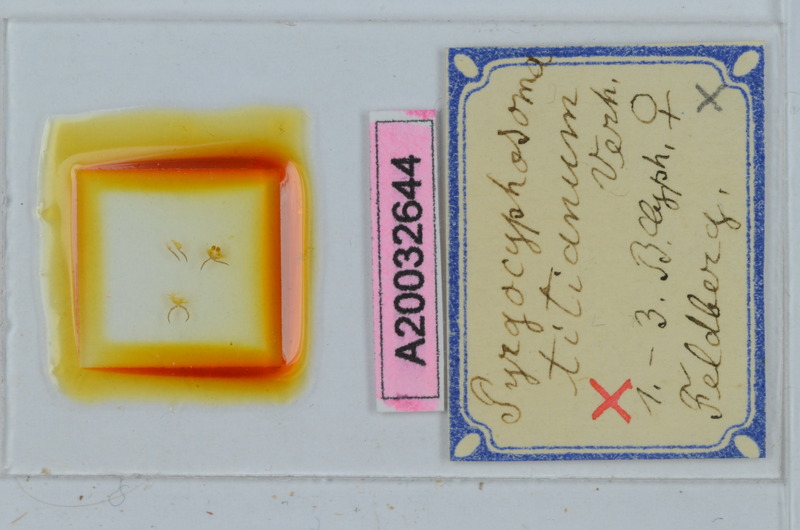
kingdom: Animalia
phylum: Arthropoda
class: Diplopoda
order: Chordeumatida
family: Craspedosomatidae
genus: Pyrgocyphosoma
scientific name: Pyrgocyphosoma titianum
